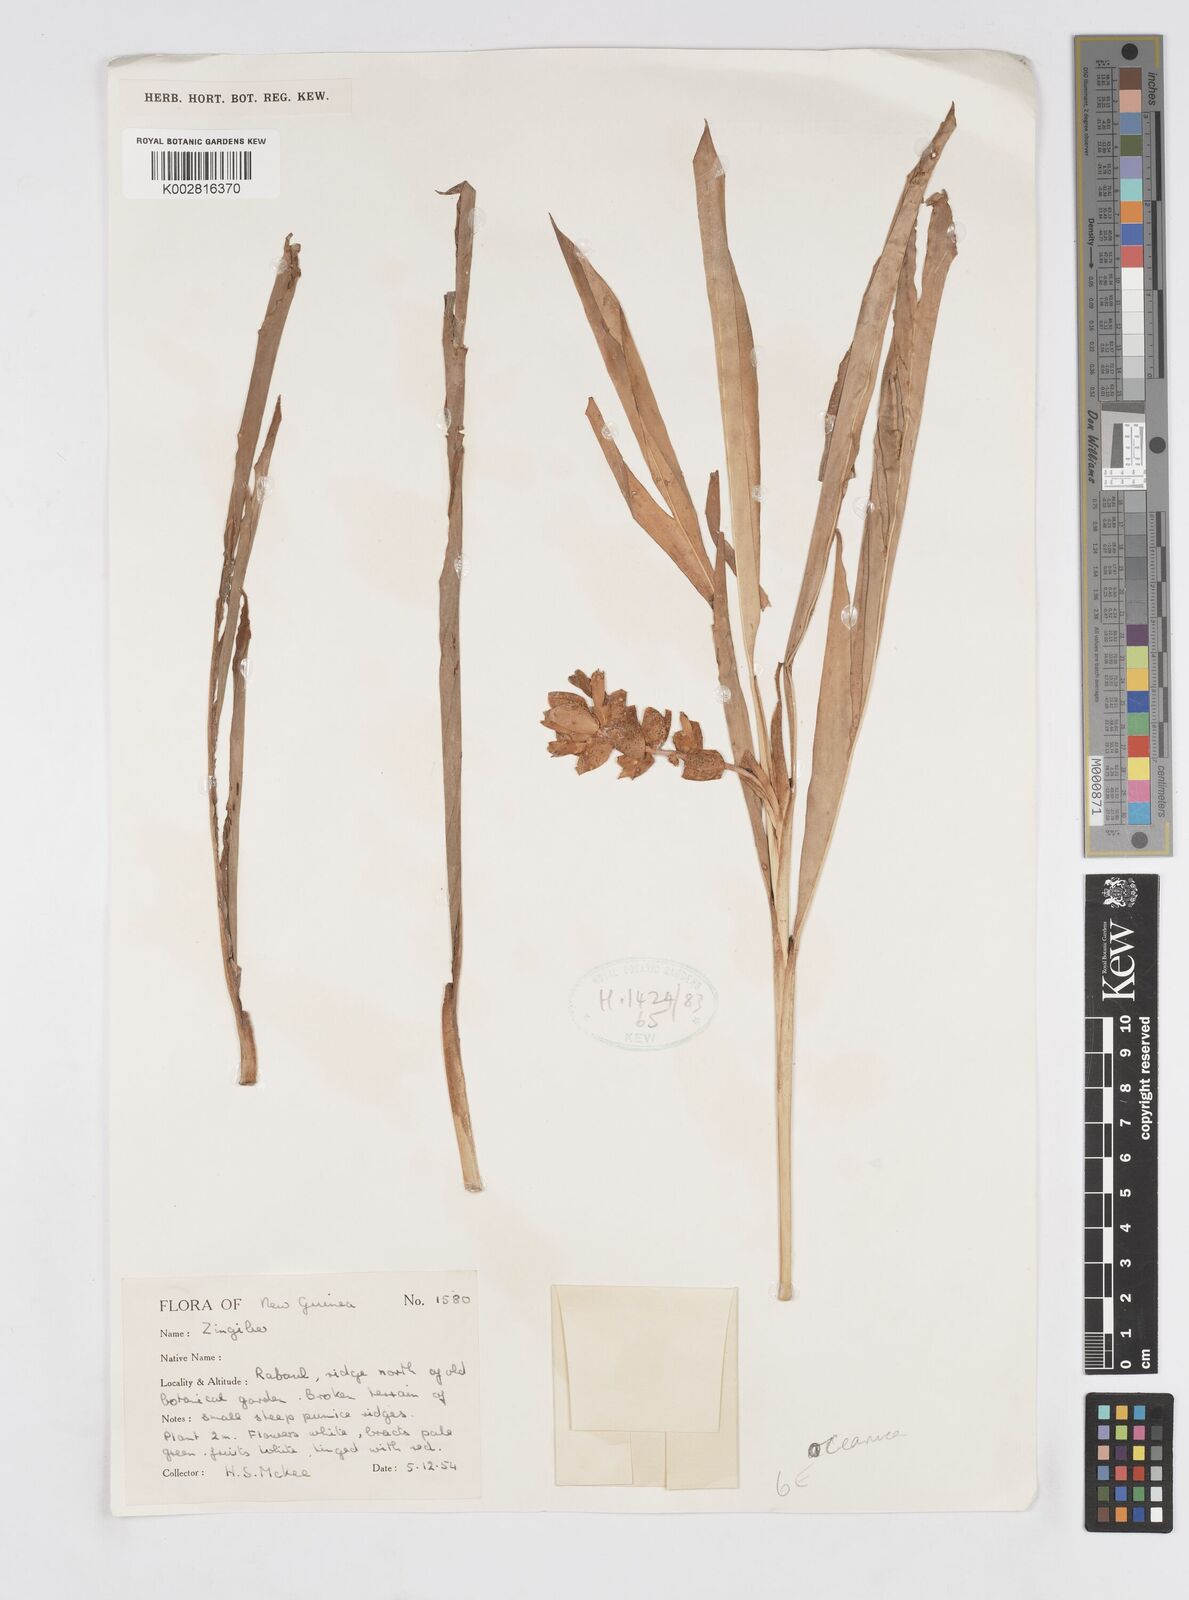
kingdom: Plantae
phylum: Tracheophyta
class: Liliopsida
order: Zingiberales
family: Zingiberaceae
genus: Alpinia
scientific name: Alpinia oceanica
